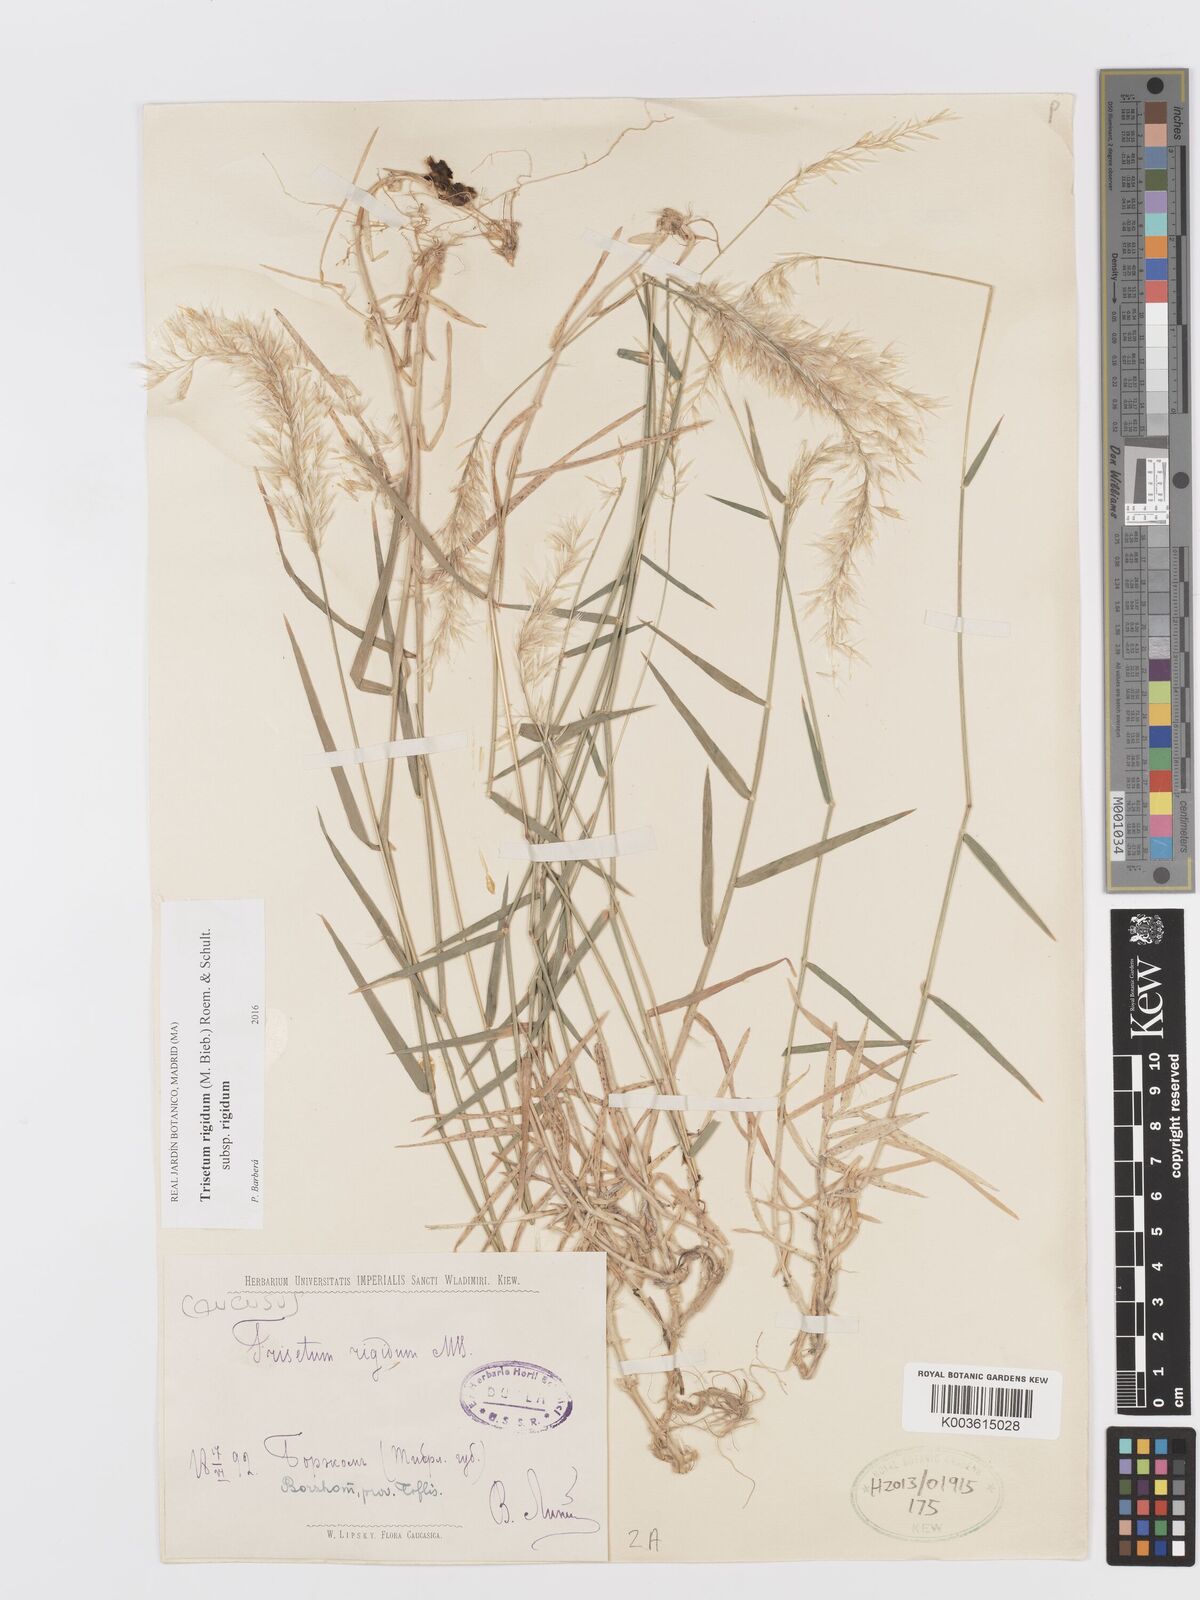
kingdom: Plantae
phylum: Tracheophyta
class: Liliopsida
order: Poales
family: Poaceae
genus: Trisetum
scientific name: Trisetum rigidum
